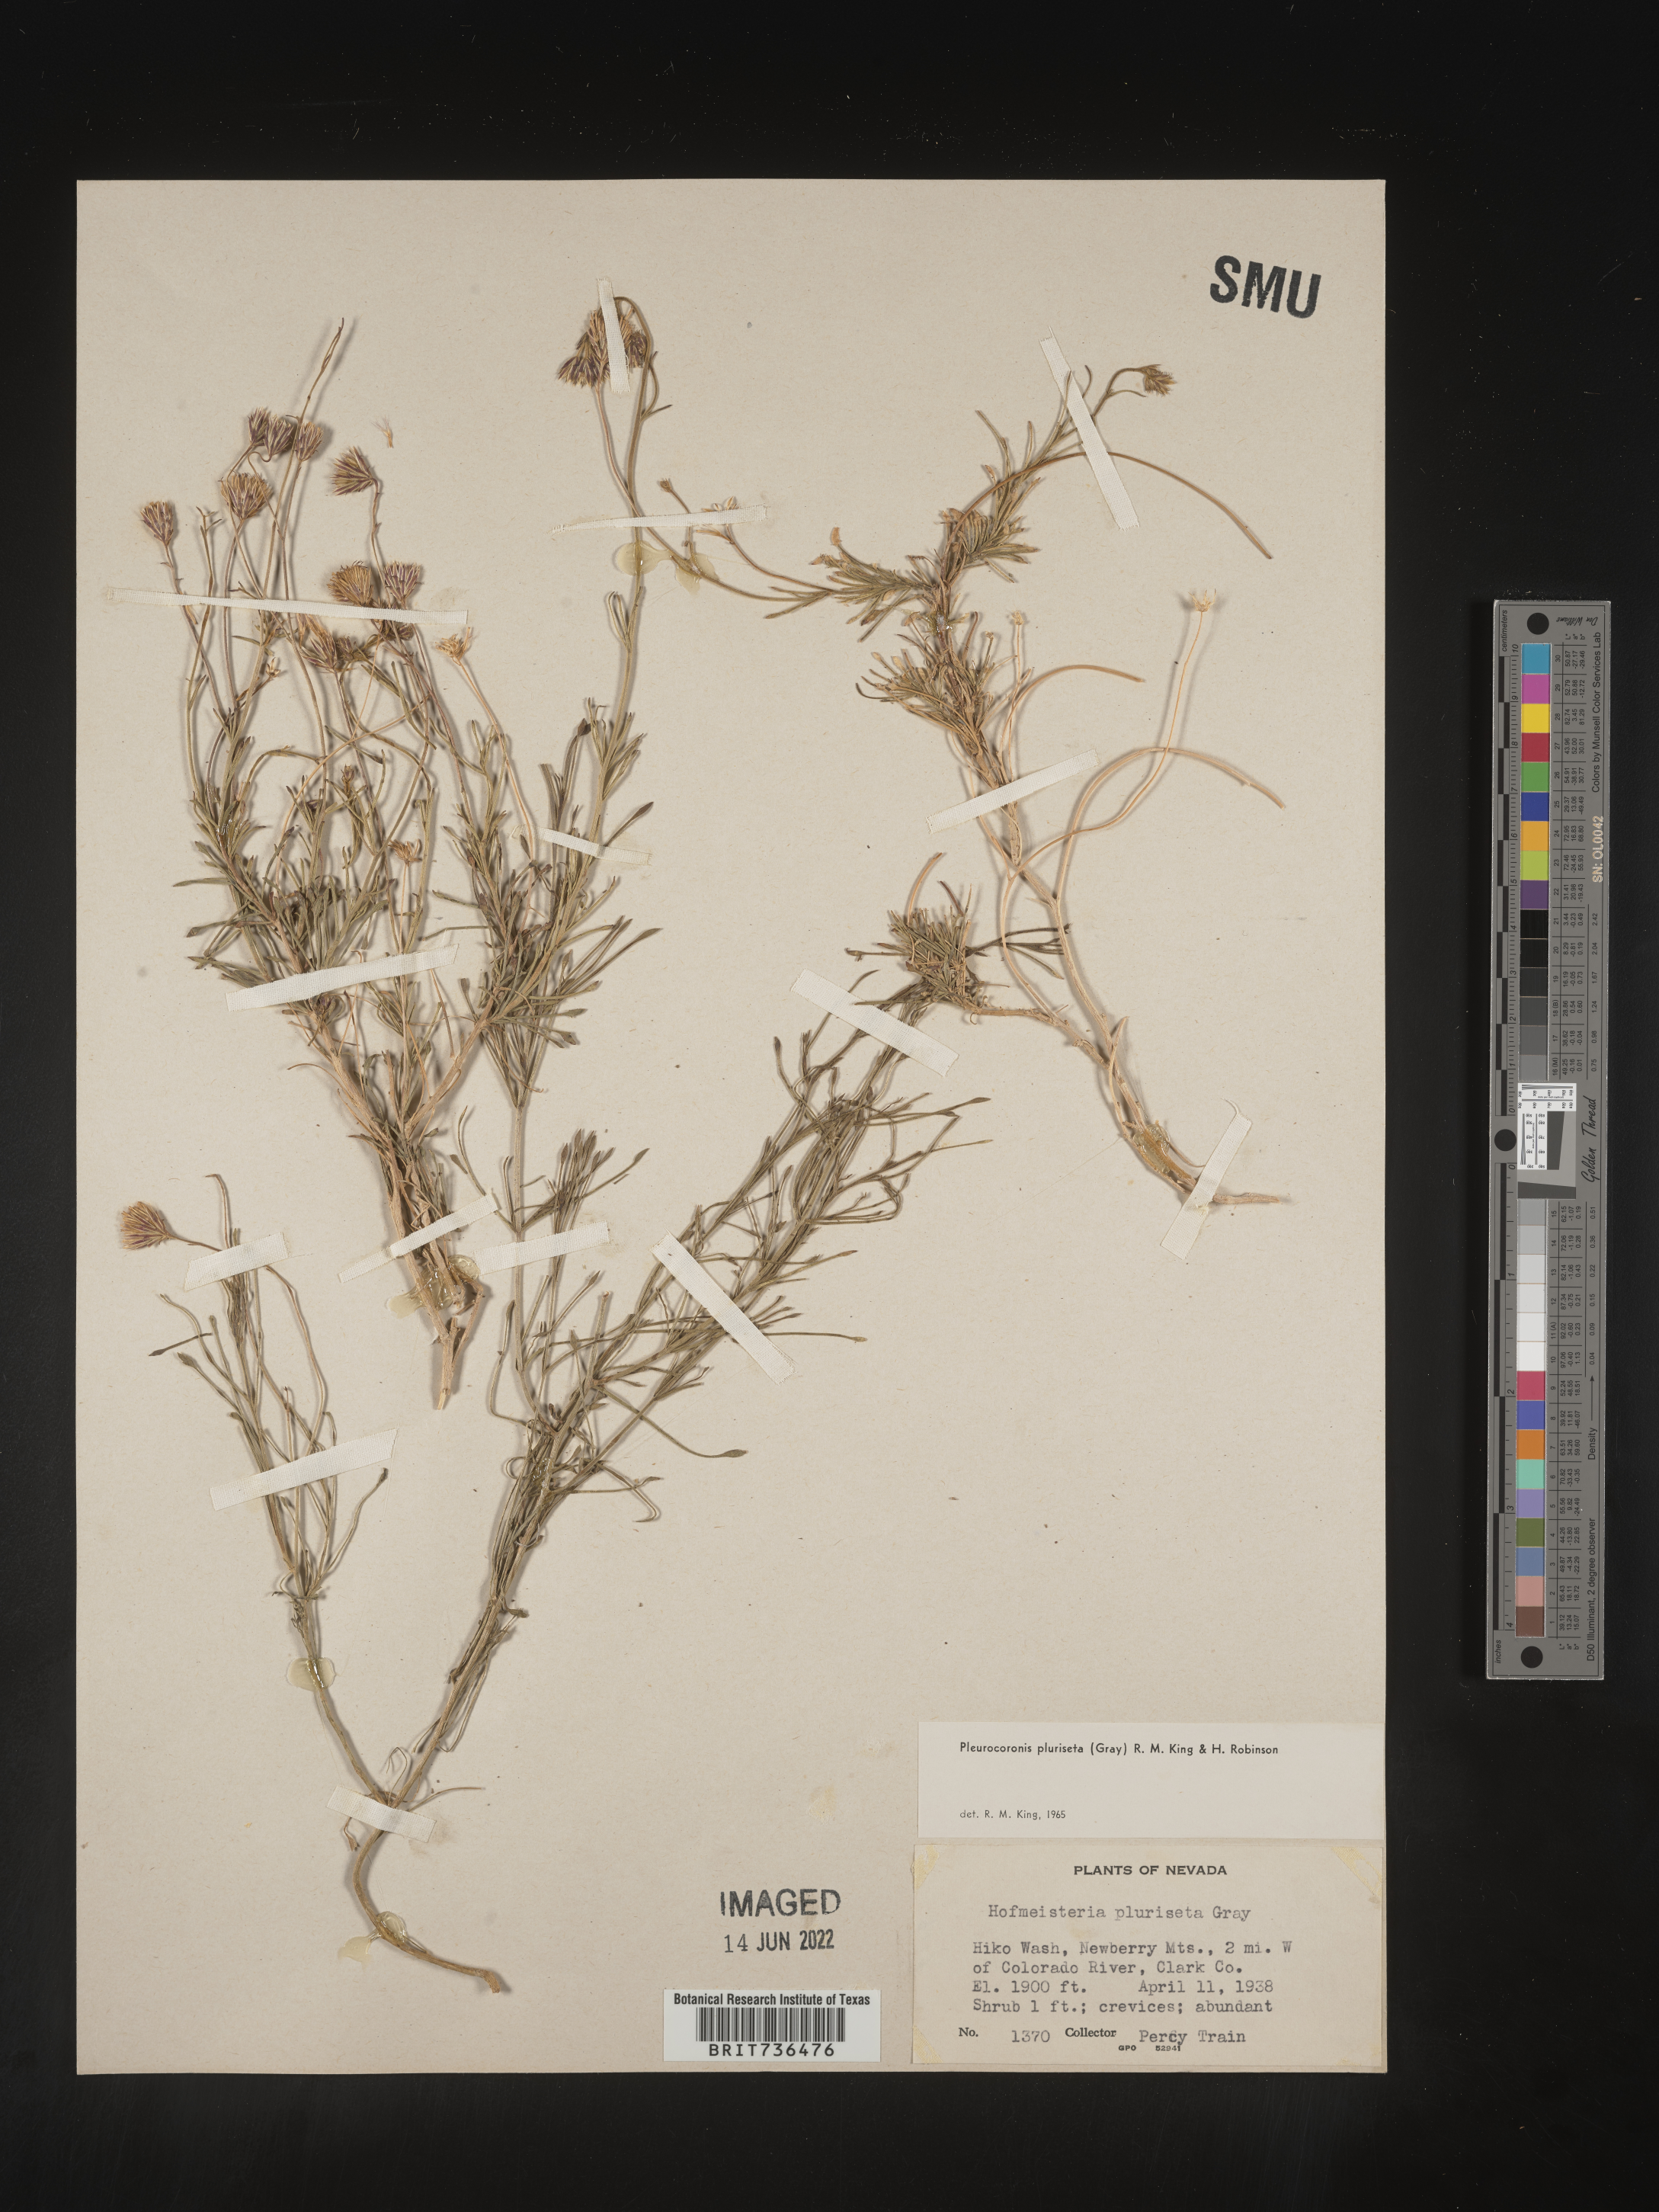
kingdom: Plantae
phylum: Tracheophyta
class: Magnoliopsida
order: Asterales
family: Asteraceae
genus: Pleurocoronis
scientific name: Pleurocoronis
